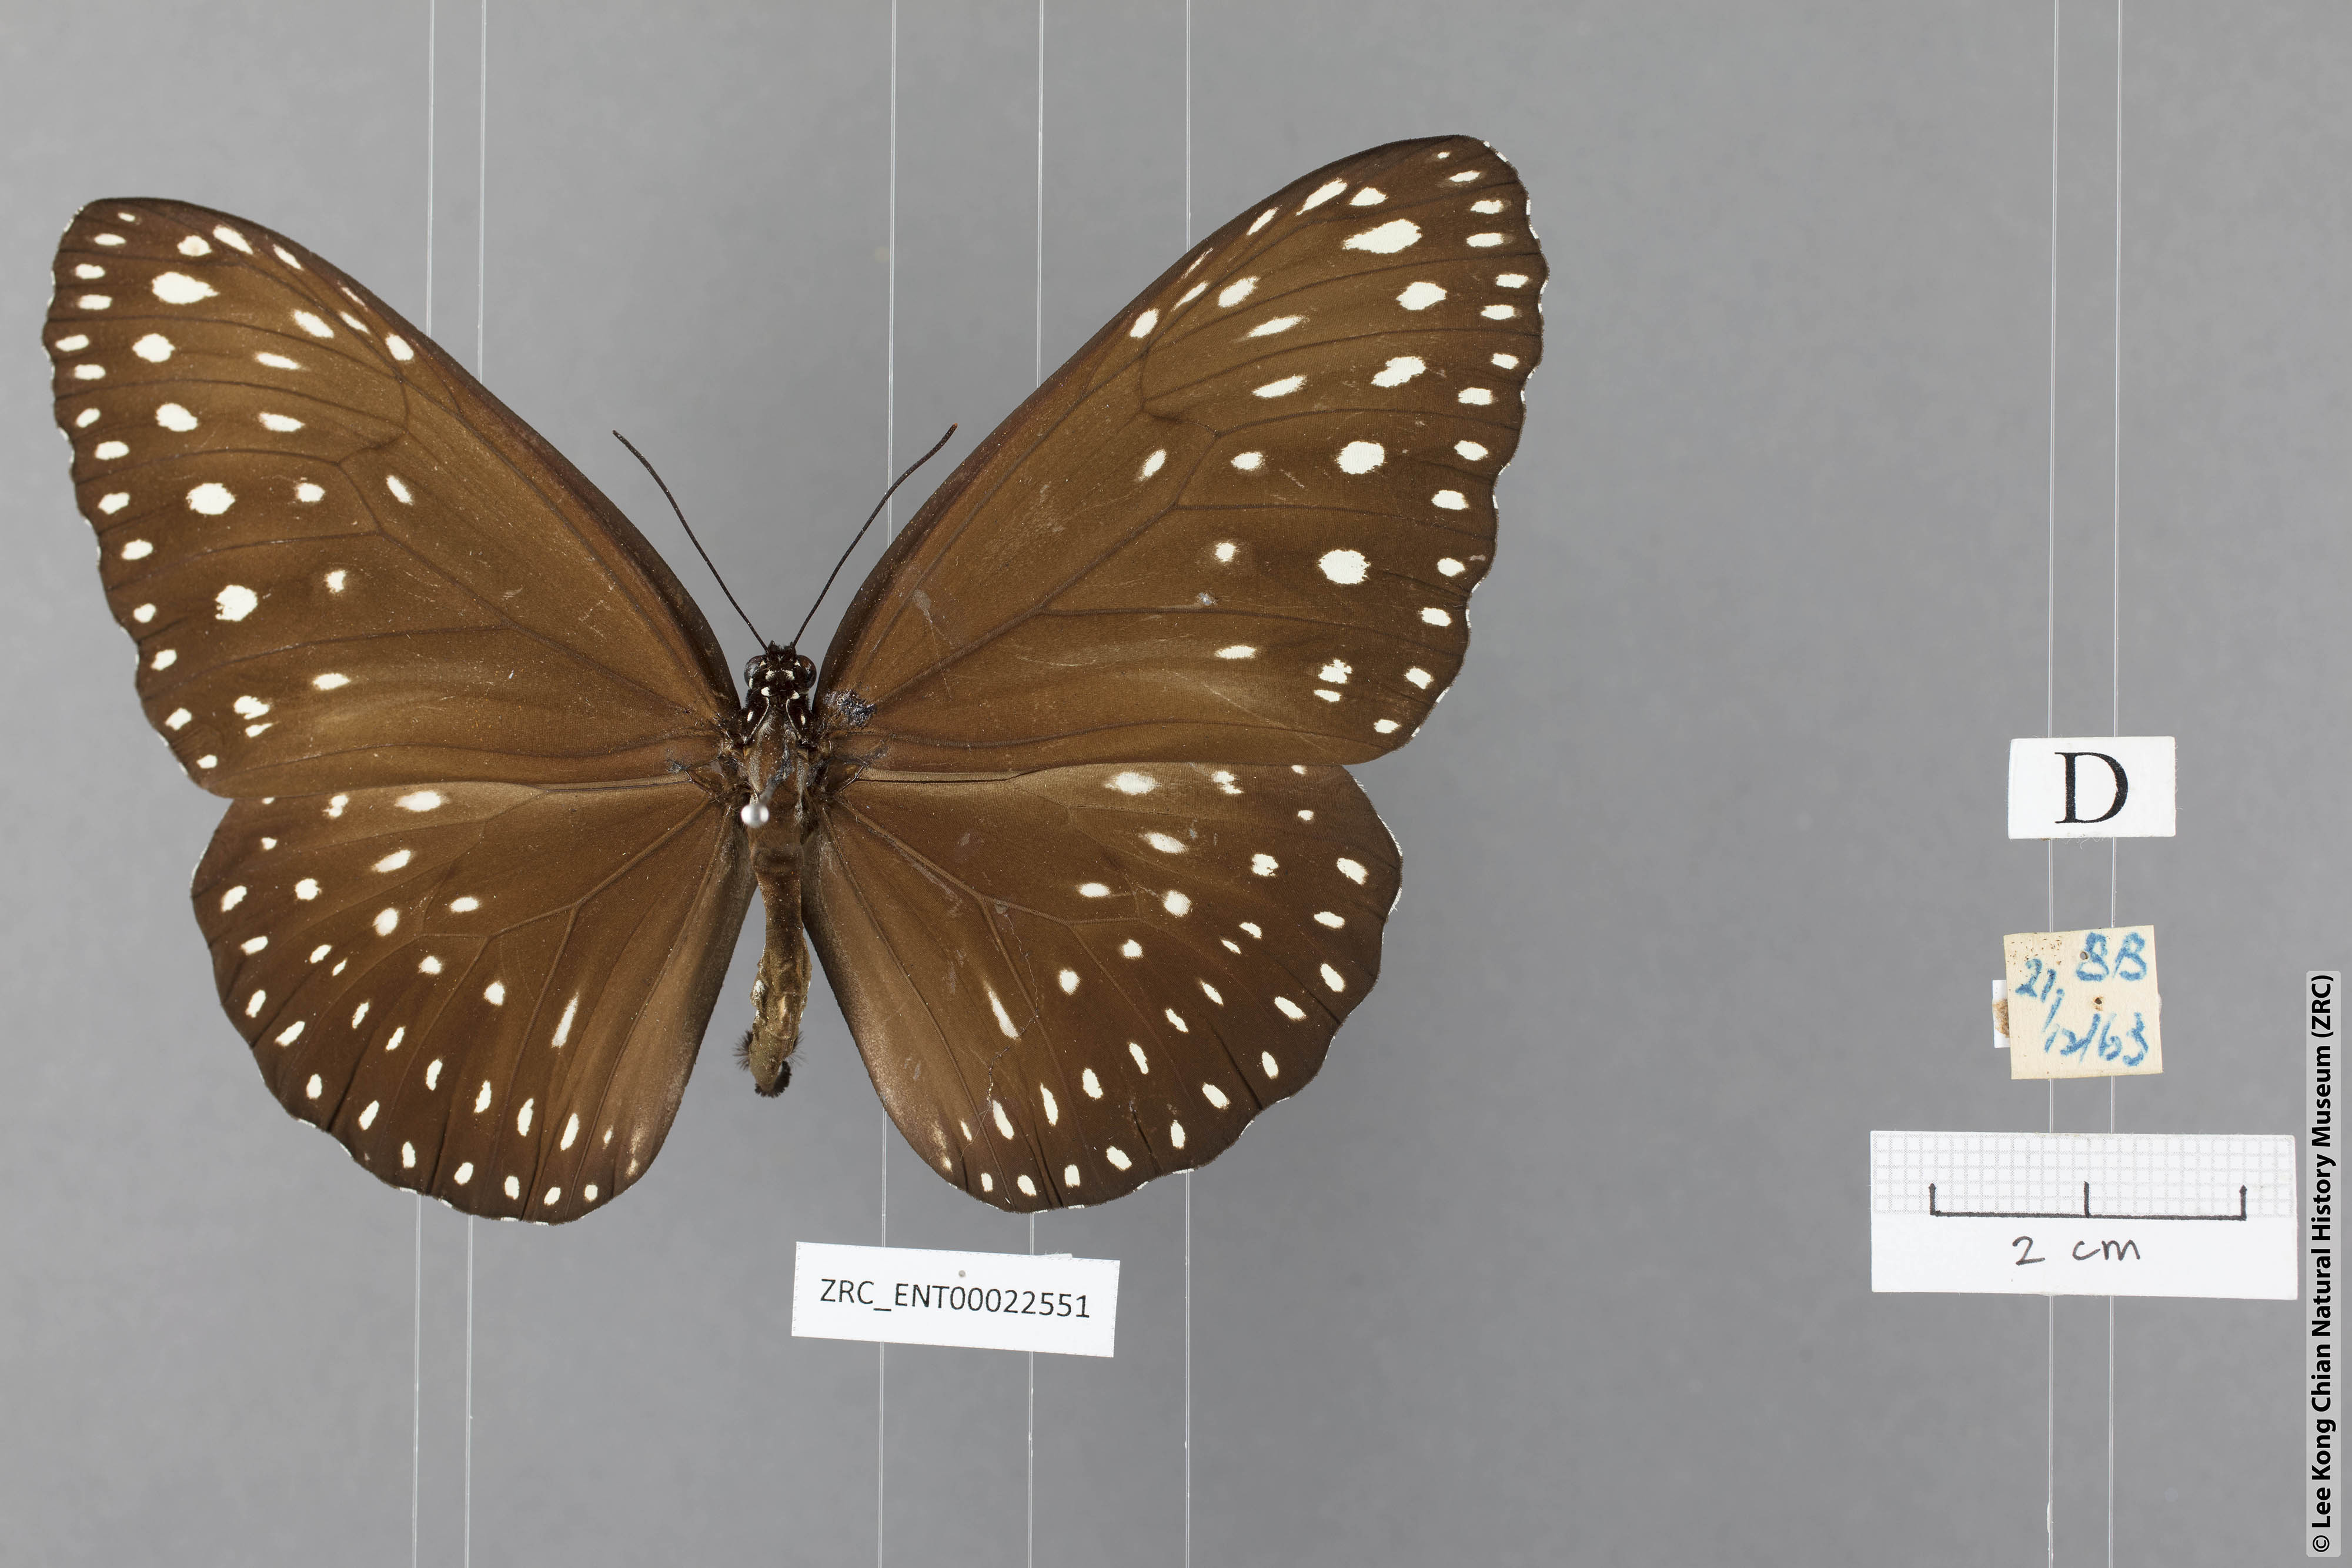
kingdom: Animalia
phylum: Arthropoda
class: Insecta
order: Lepidoptera
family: Nymphalidae
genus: Euploea
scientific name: Euploea camaralzeman
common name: Malayan crow butterfly
